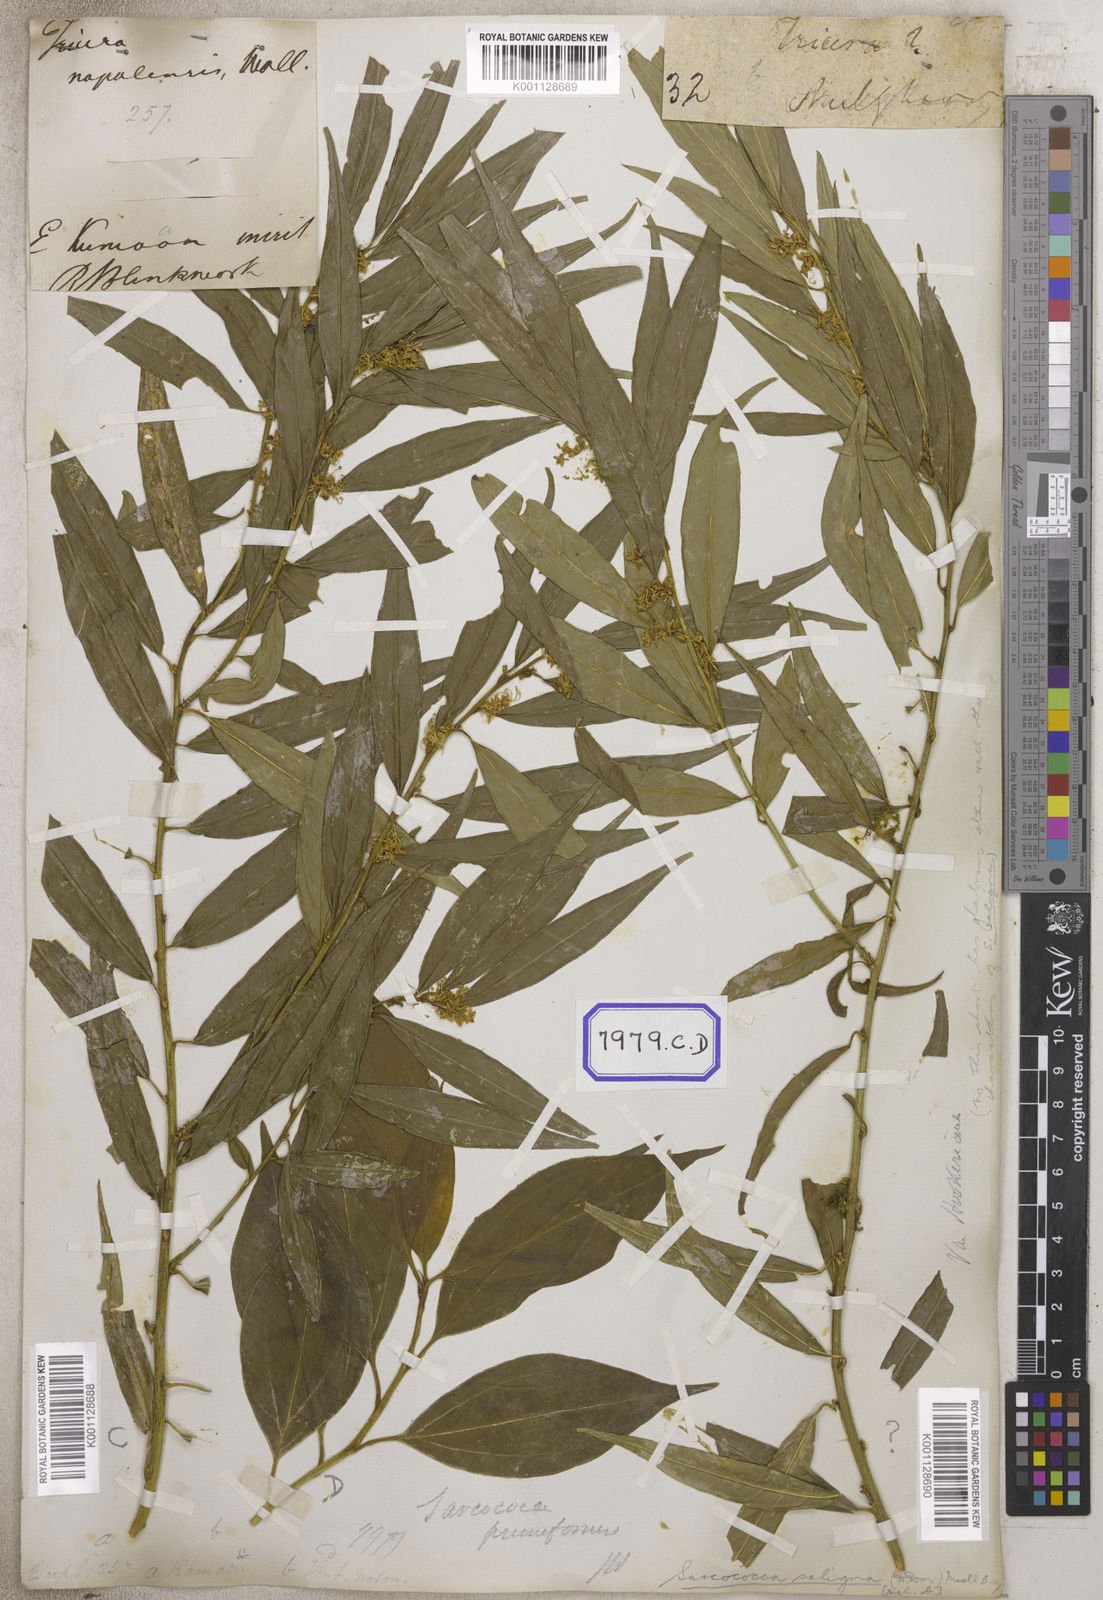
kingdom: Plantae
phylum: Tracheophyta
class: Magnoliopsida
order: Malpighiales
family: Euphorbiaceae
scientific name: Euphorbiaceae
